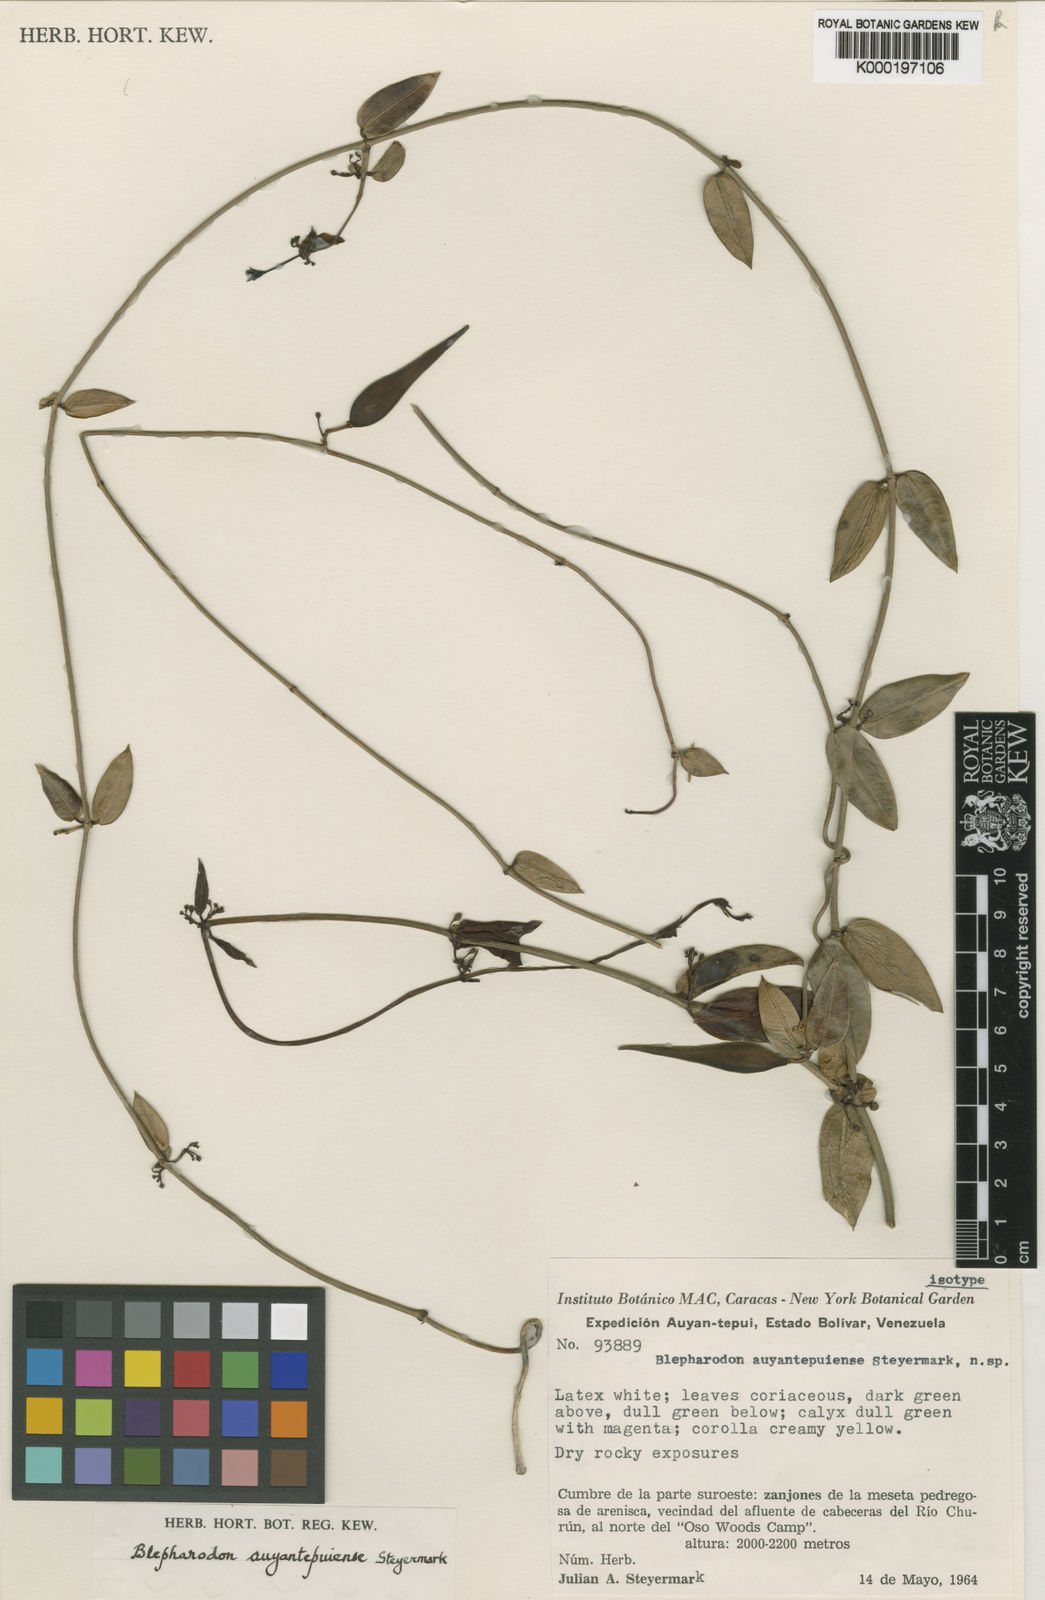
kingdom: Plantae
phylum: Tracheophyta
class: Magnoliopsida
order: Gentianales
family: Apocynaceae
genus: Blepharodon
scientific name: Blepharodon
